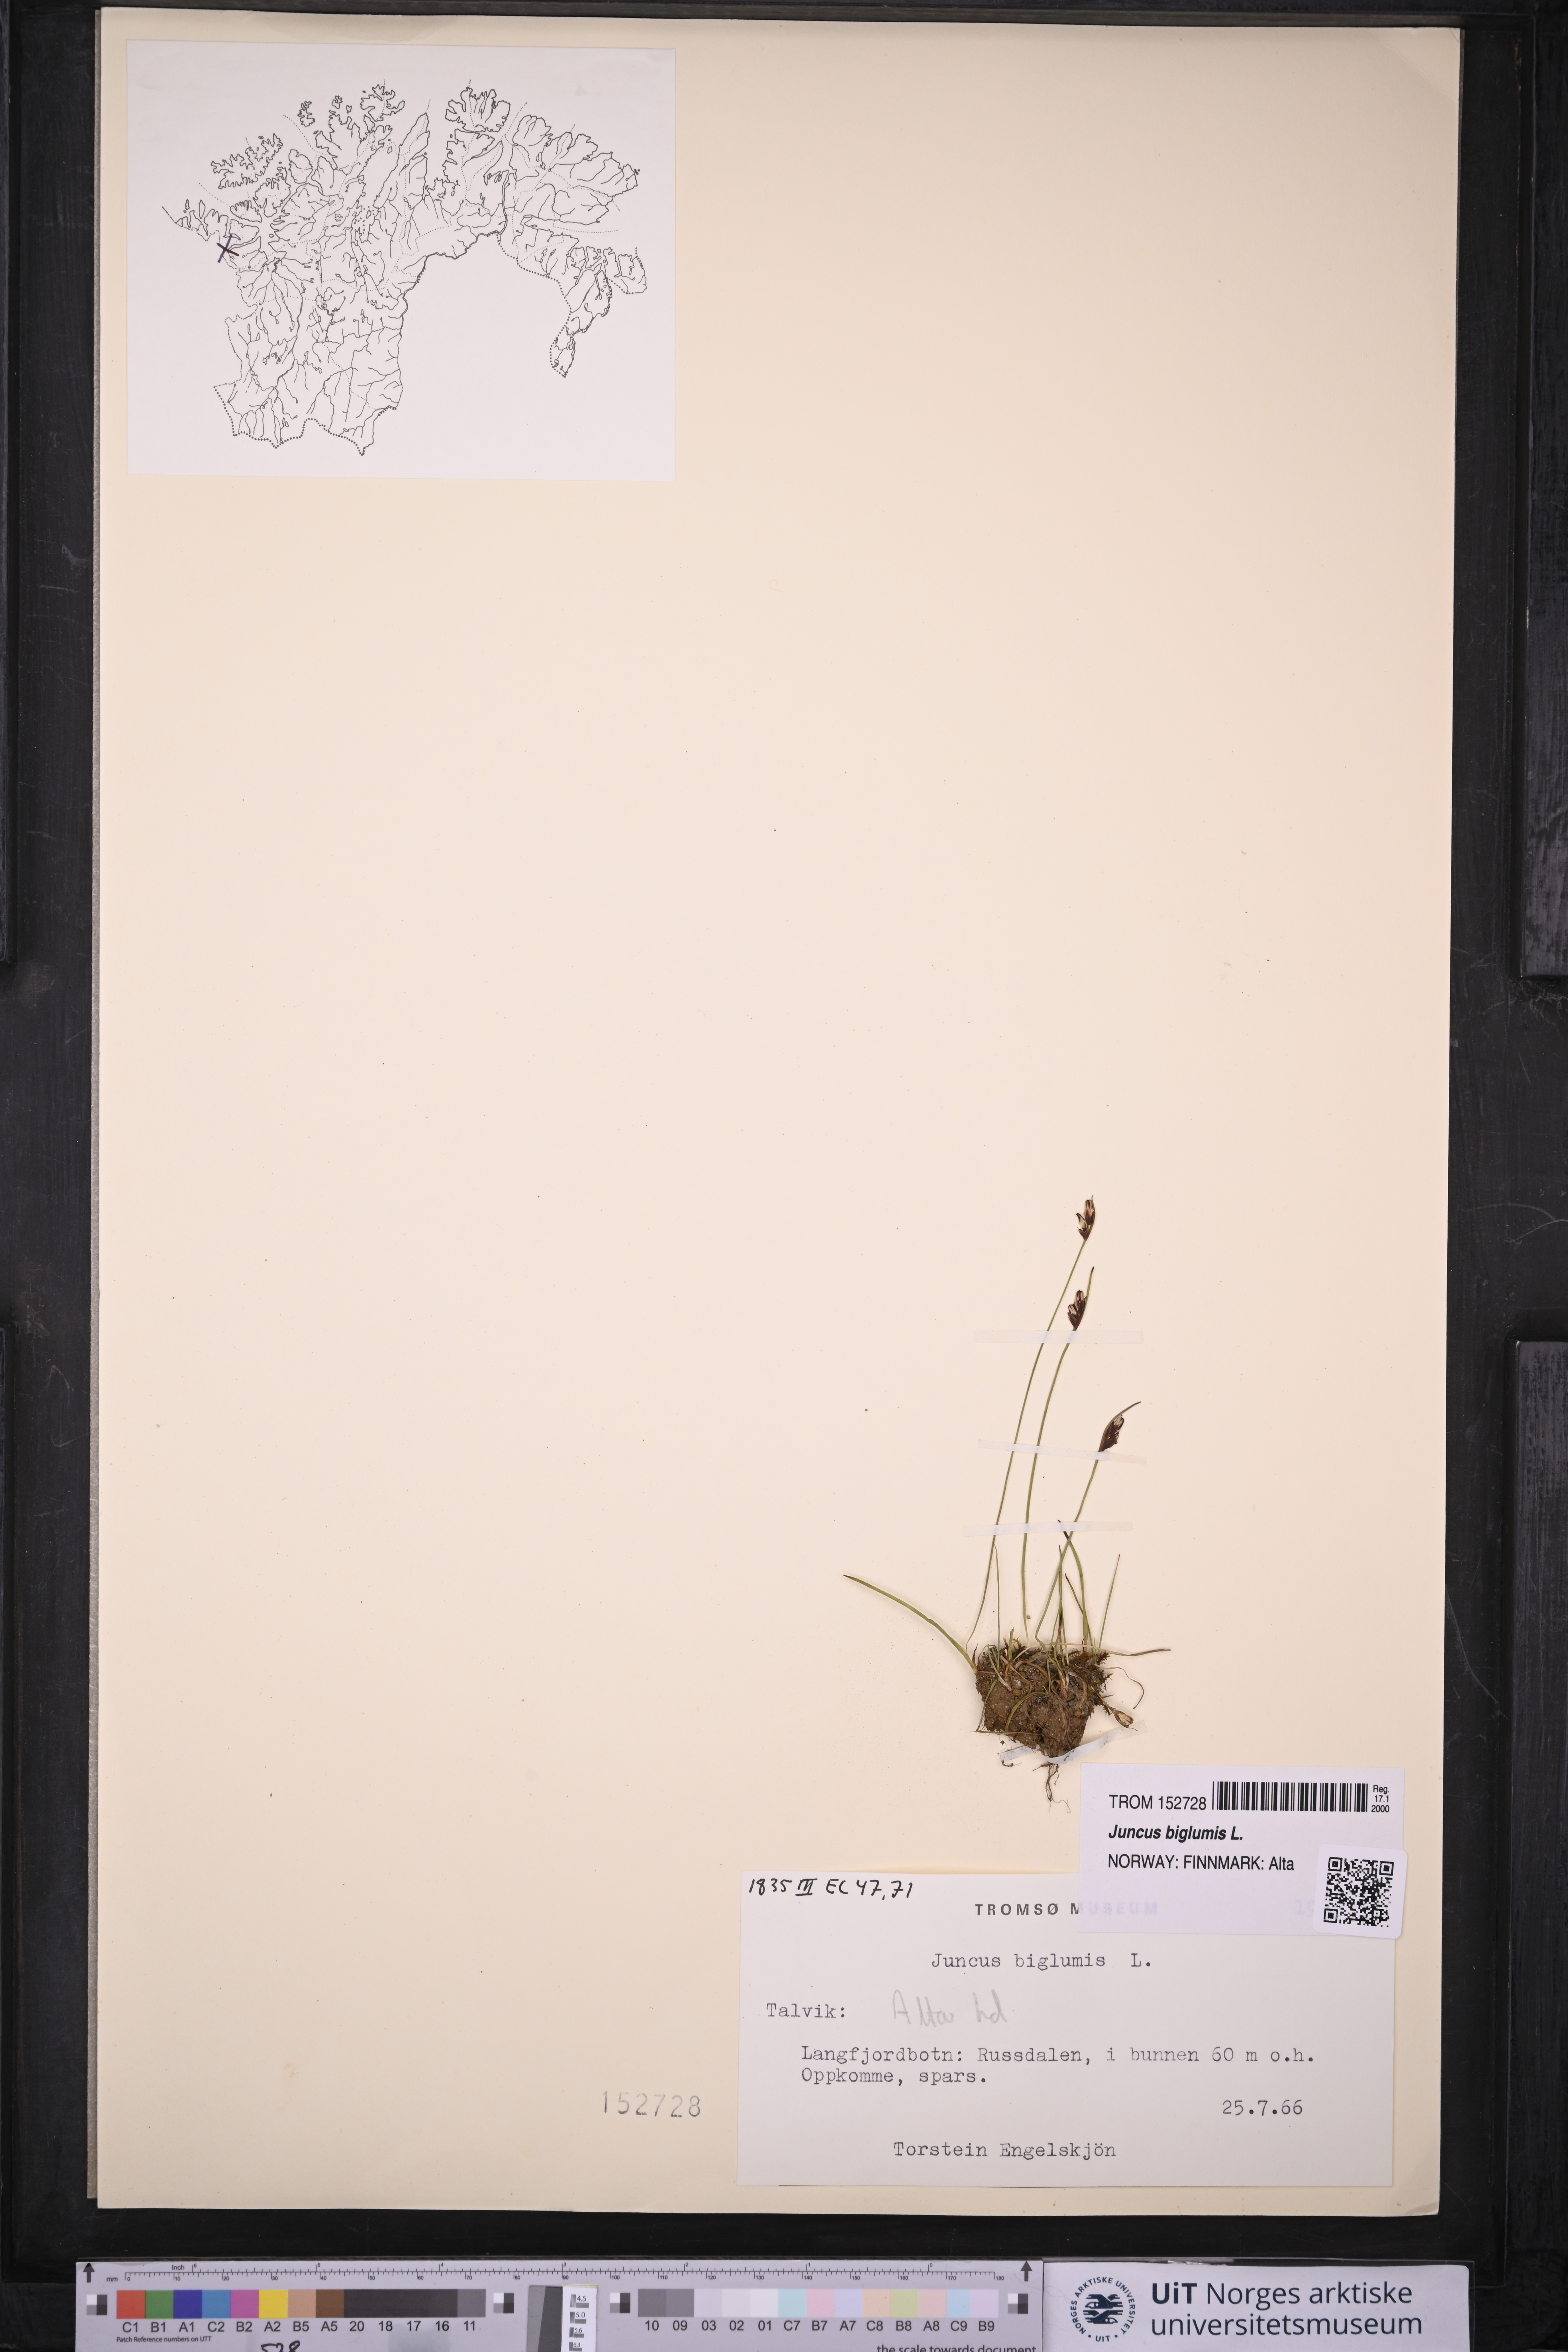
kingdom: Plantae
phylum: Tracheophyta
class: Liliopsida
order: Poales
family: Juncaceae
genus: Juncus
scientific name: Juncus biglumis
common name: Two-flowered rush
